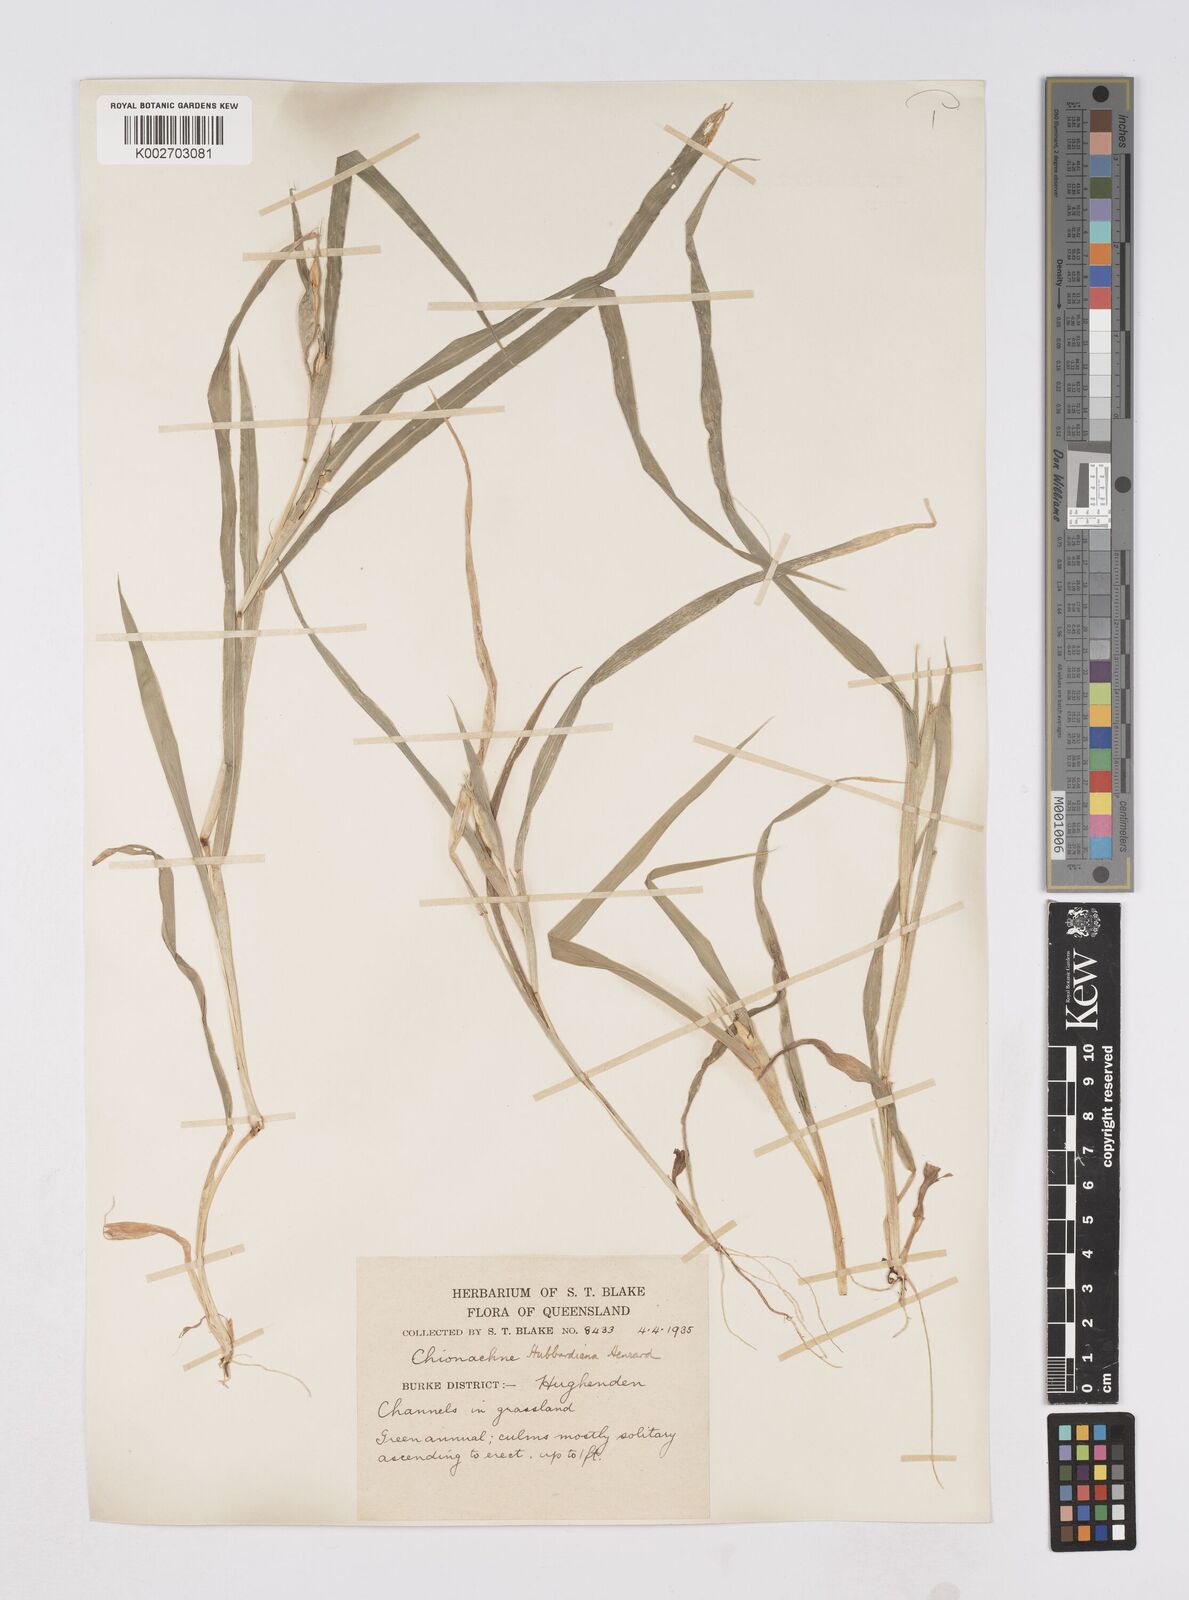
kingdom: Plantae
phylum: Tracheophyta
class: Liliopsida
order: Poales
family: Poaceae
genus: Polytoca
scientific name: Polytoca hubbardiana
